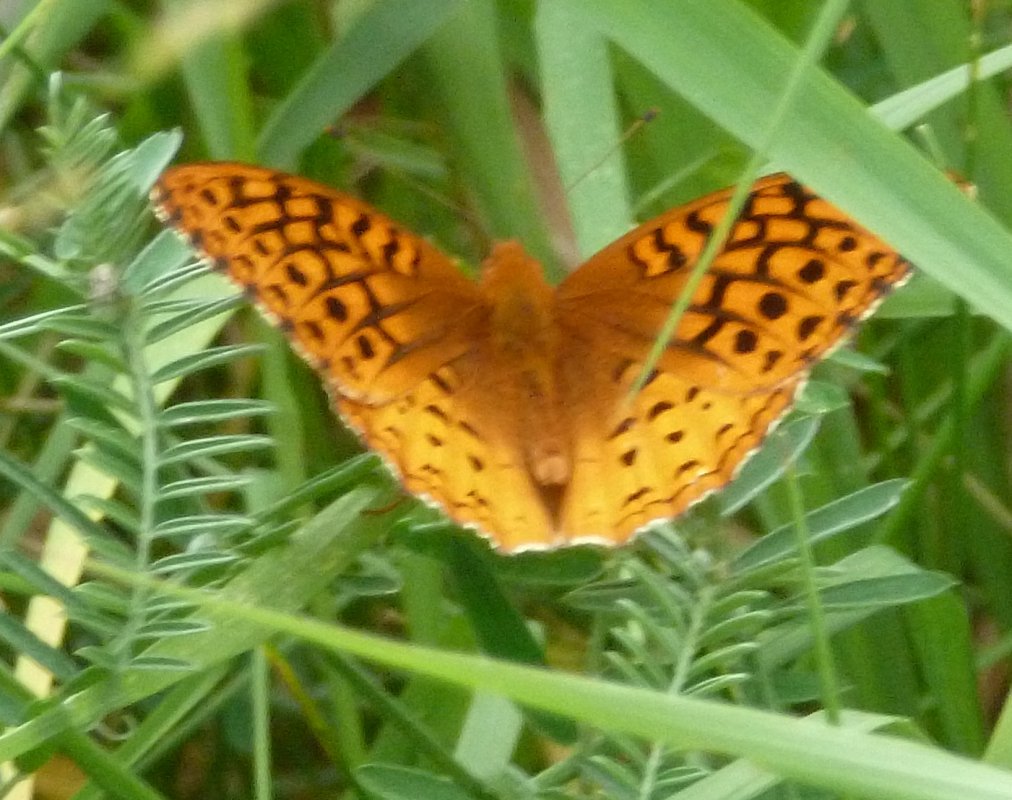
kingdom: Animalia
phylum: Arthropoda
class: Insecta
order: Lepidoptera
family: Nymphalidae
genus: Speyeria
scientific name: Speyeria cybele
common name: Great Spangled Fritillary
